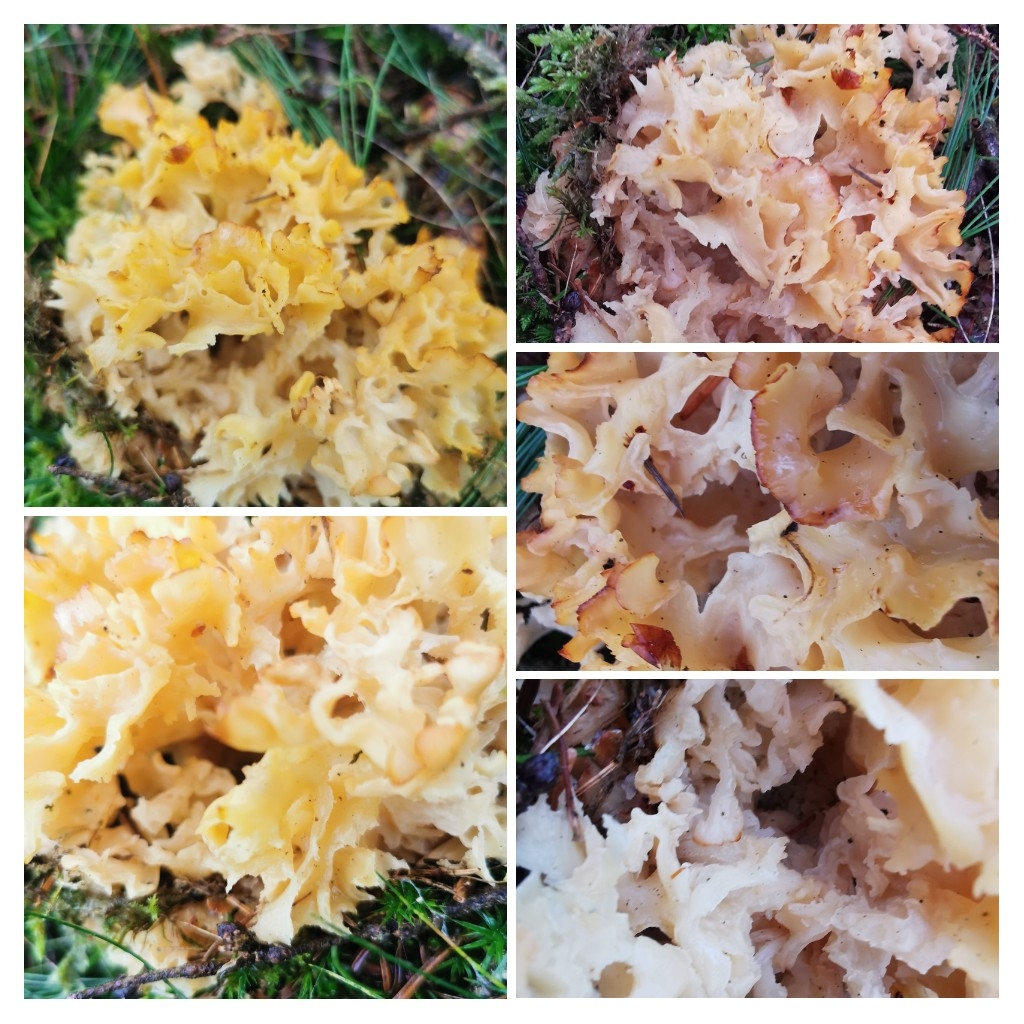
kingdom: Fungi
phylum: Basidiomycota
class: Agaricomycetes
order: Polyporales
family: Sparassidaceae
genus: Sparassis
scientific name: Sparassis crispa
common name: kruset blomkålssvamp
